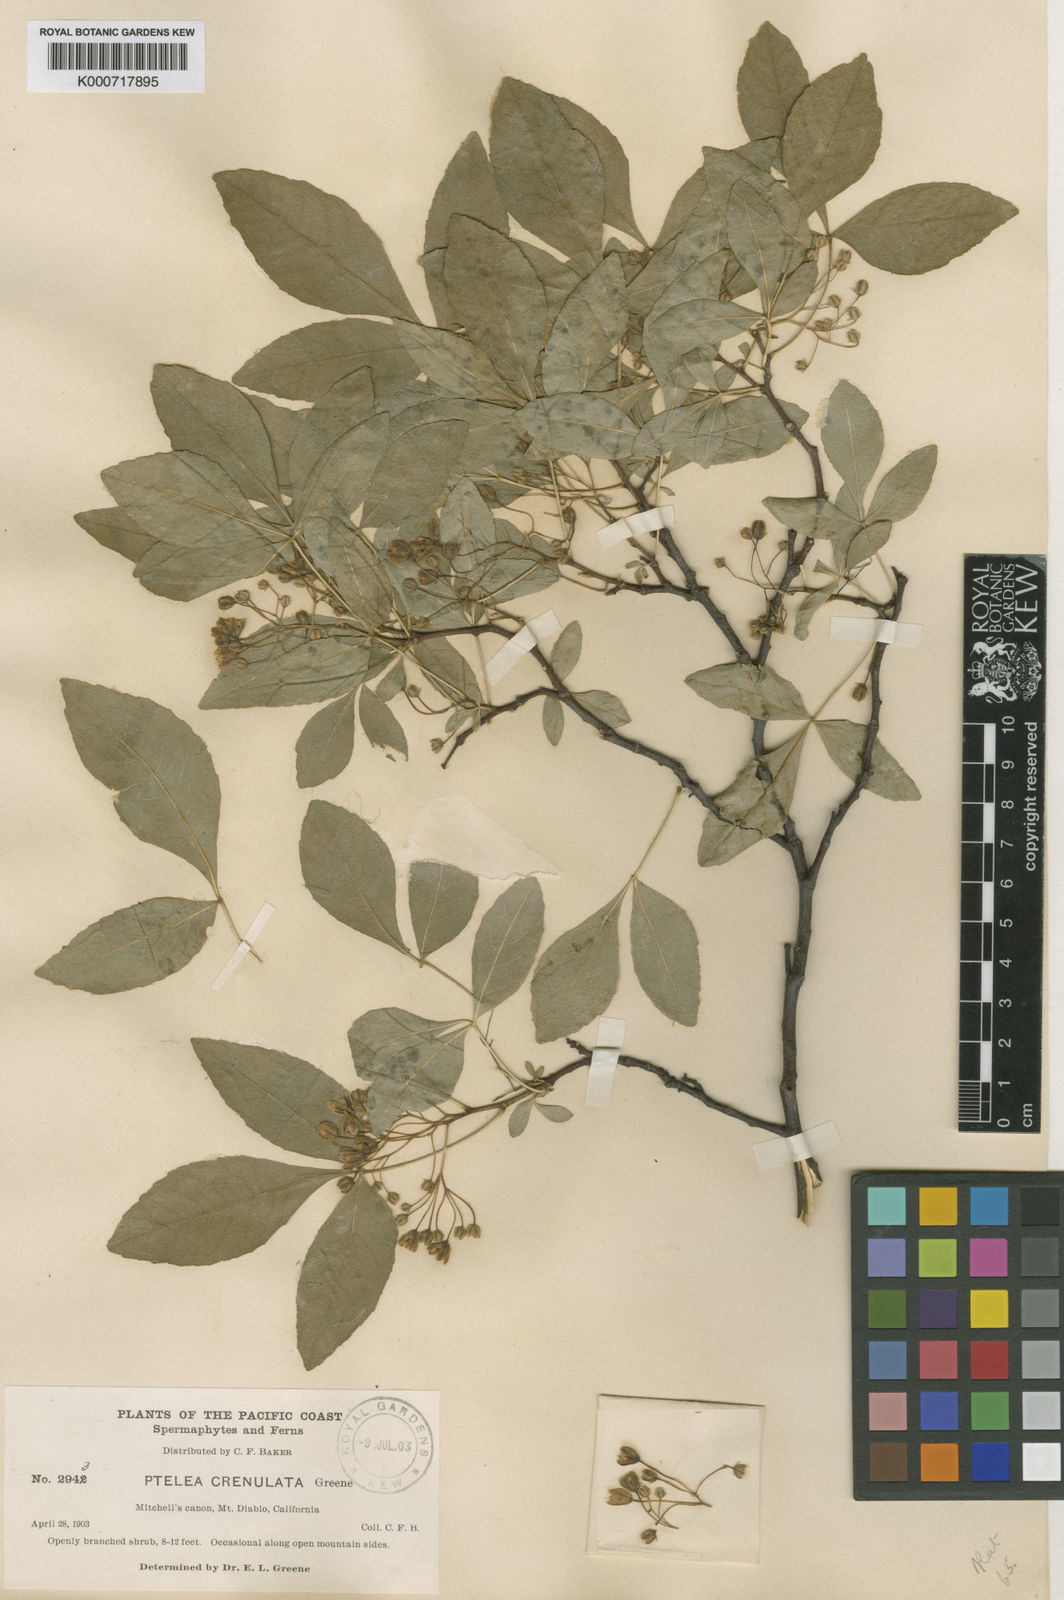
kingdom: Plantae
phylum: Tracheophyta
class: Magnoliopsida
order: Sapindales
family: Rutaceae
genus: Ptelea
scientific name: Ptelea trifoliata
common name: Common hop-tree
